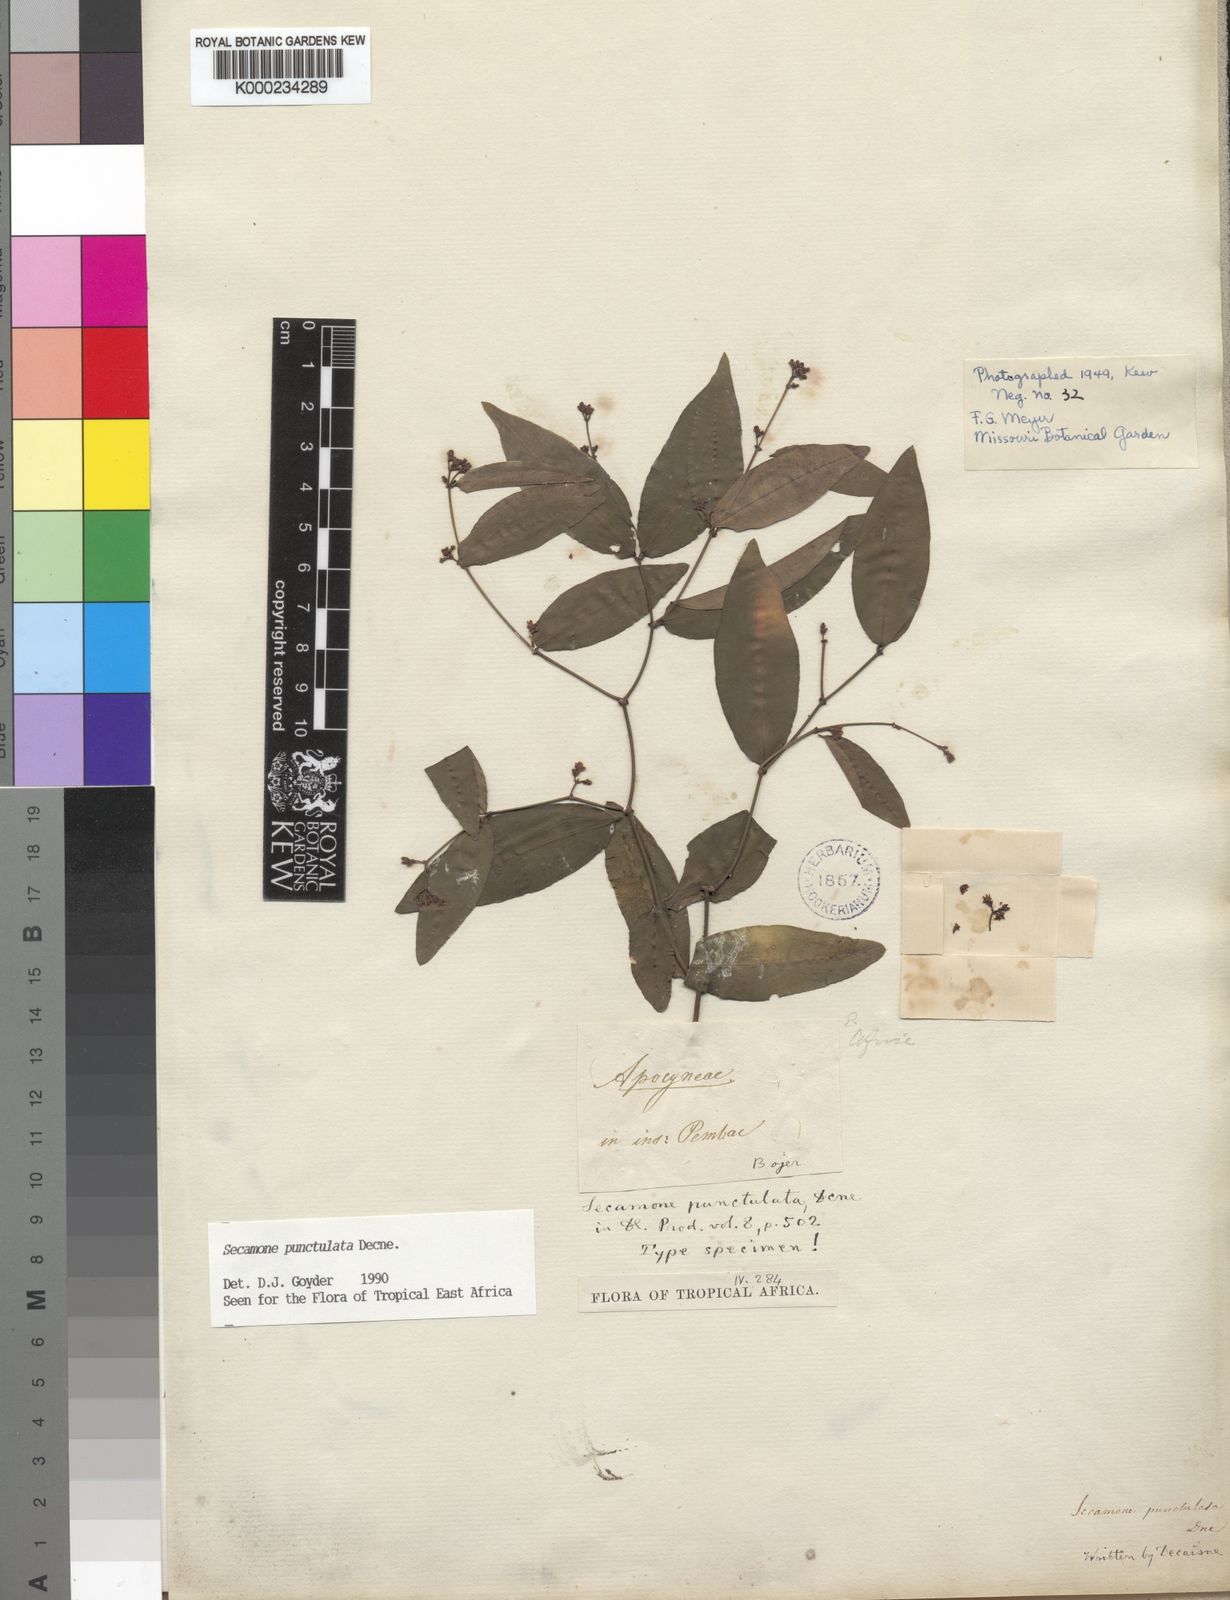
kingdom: Plantae
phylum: Tracheophyta
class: Magnoliopsida
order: Gentianales
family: Apocynaceae
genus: Secamone
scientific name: Secamone punctulata
